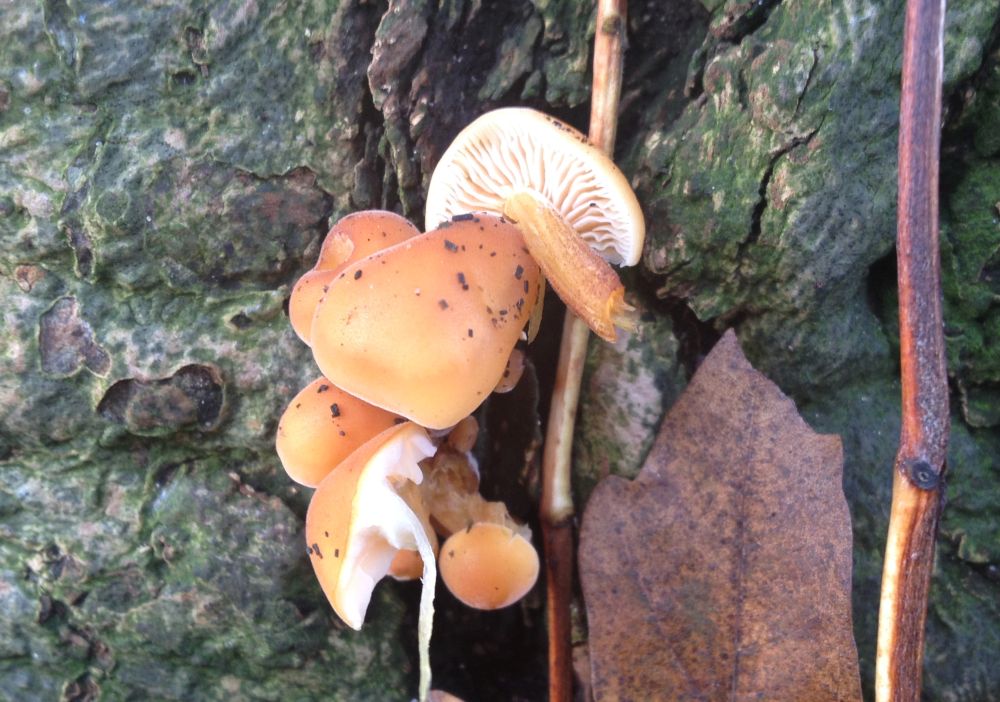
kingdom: Fungi
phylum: Basidiomycota
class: Agaricomycetes
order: Agaricales
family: Physalacriaceae
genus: Flammulina
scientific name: Flammulina velutipes
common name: gul fløjlsfod
